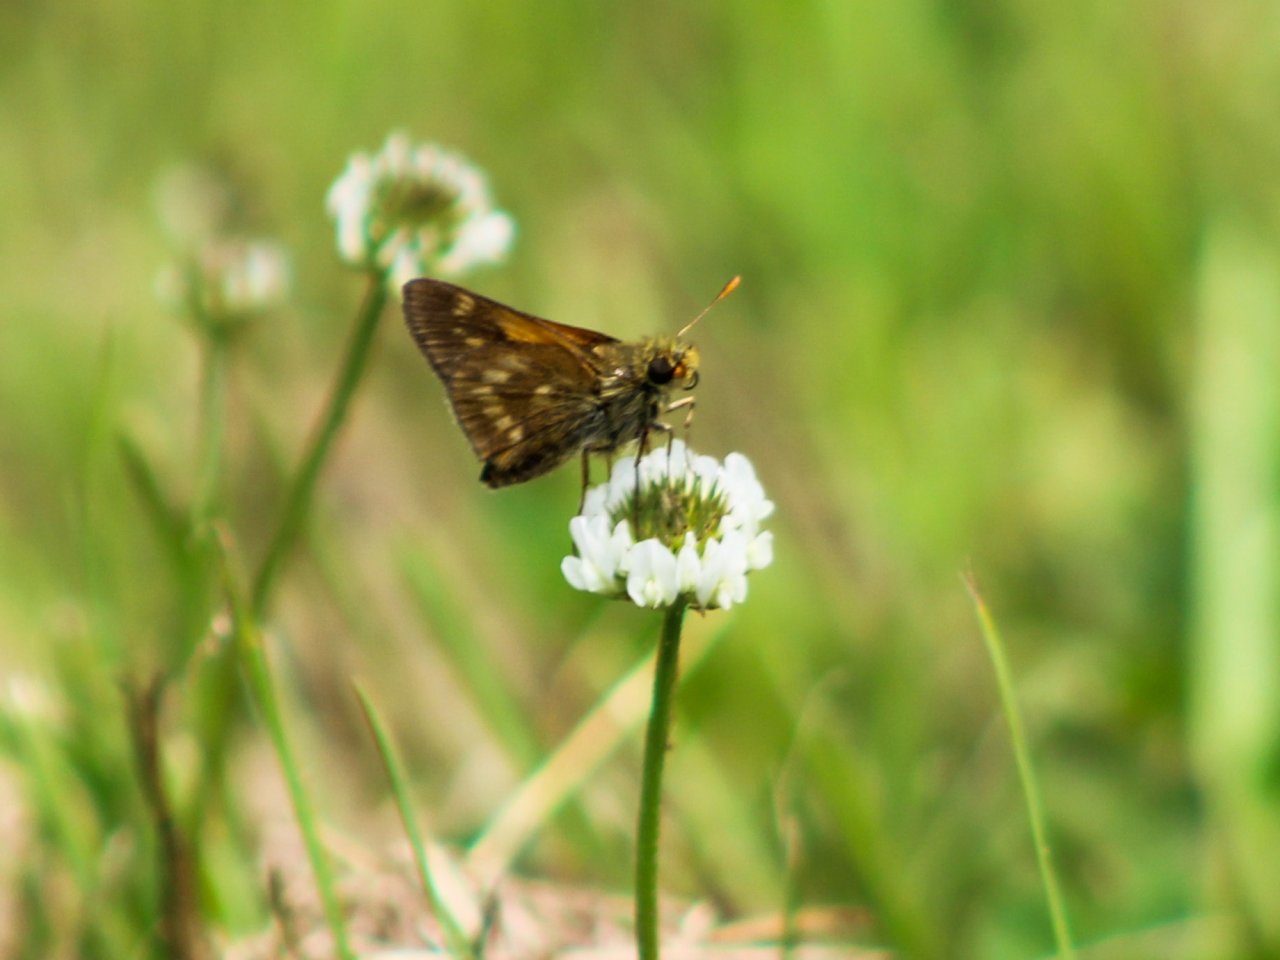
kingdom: Animalia
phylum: Arthropoda
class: Insecta
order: Lepidoptera
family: Hesperiidae
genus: Polites
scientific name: Polites
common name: Long Dash Skipper
